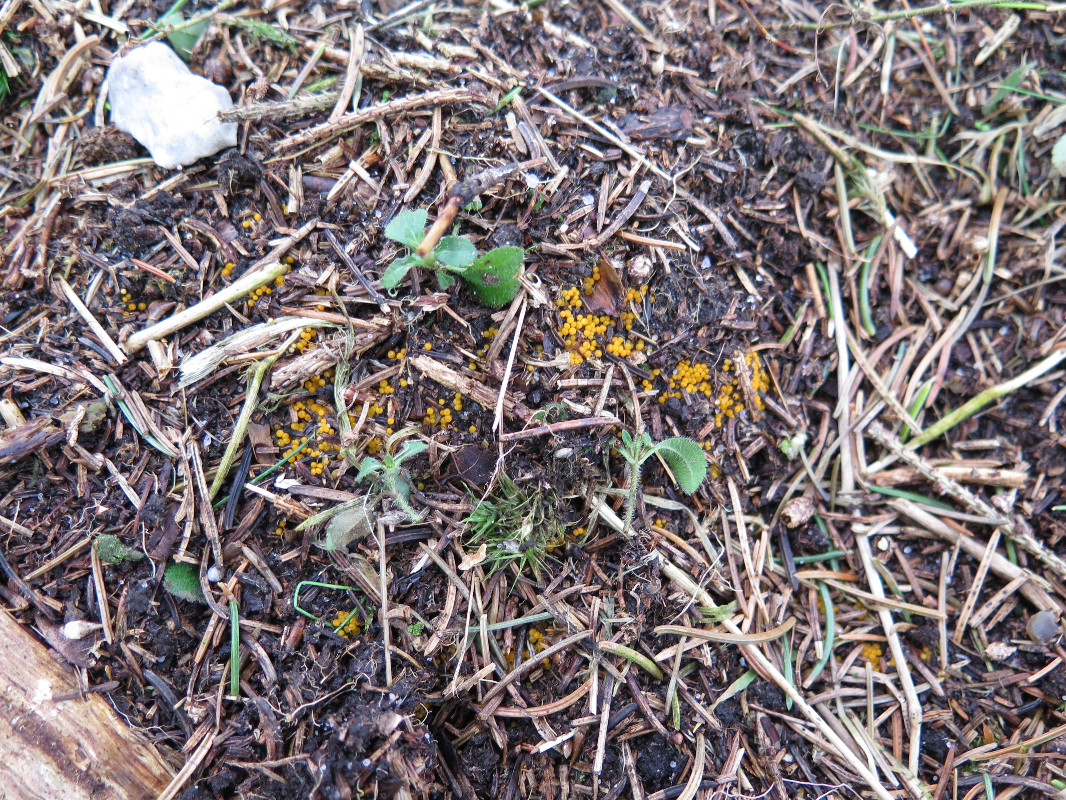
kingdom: Fungi
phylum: Ascomycota
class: Pezizomycetes
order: Pezizales
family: Pyronemataceae
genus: Byssonectria
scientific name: Byssonectria
